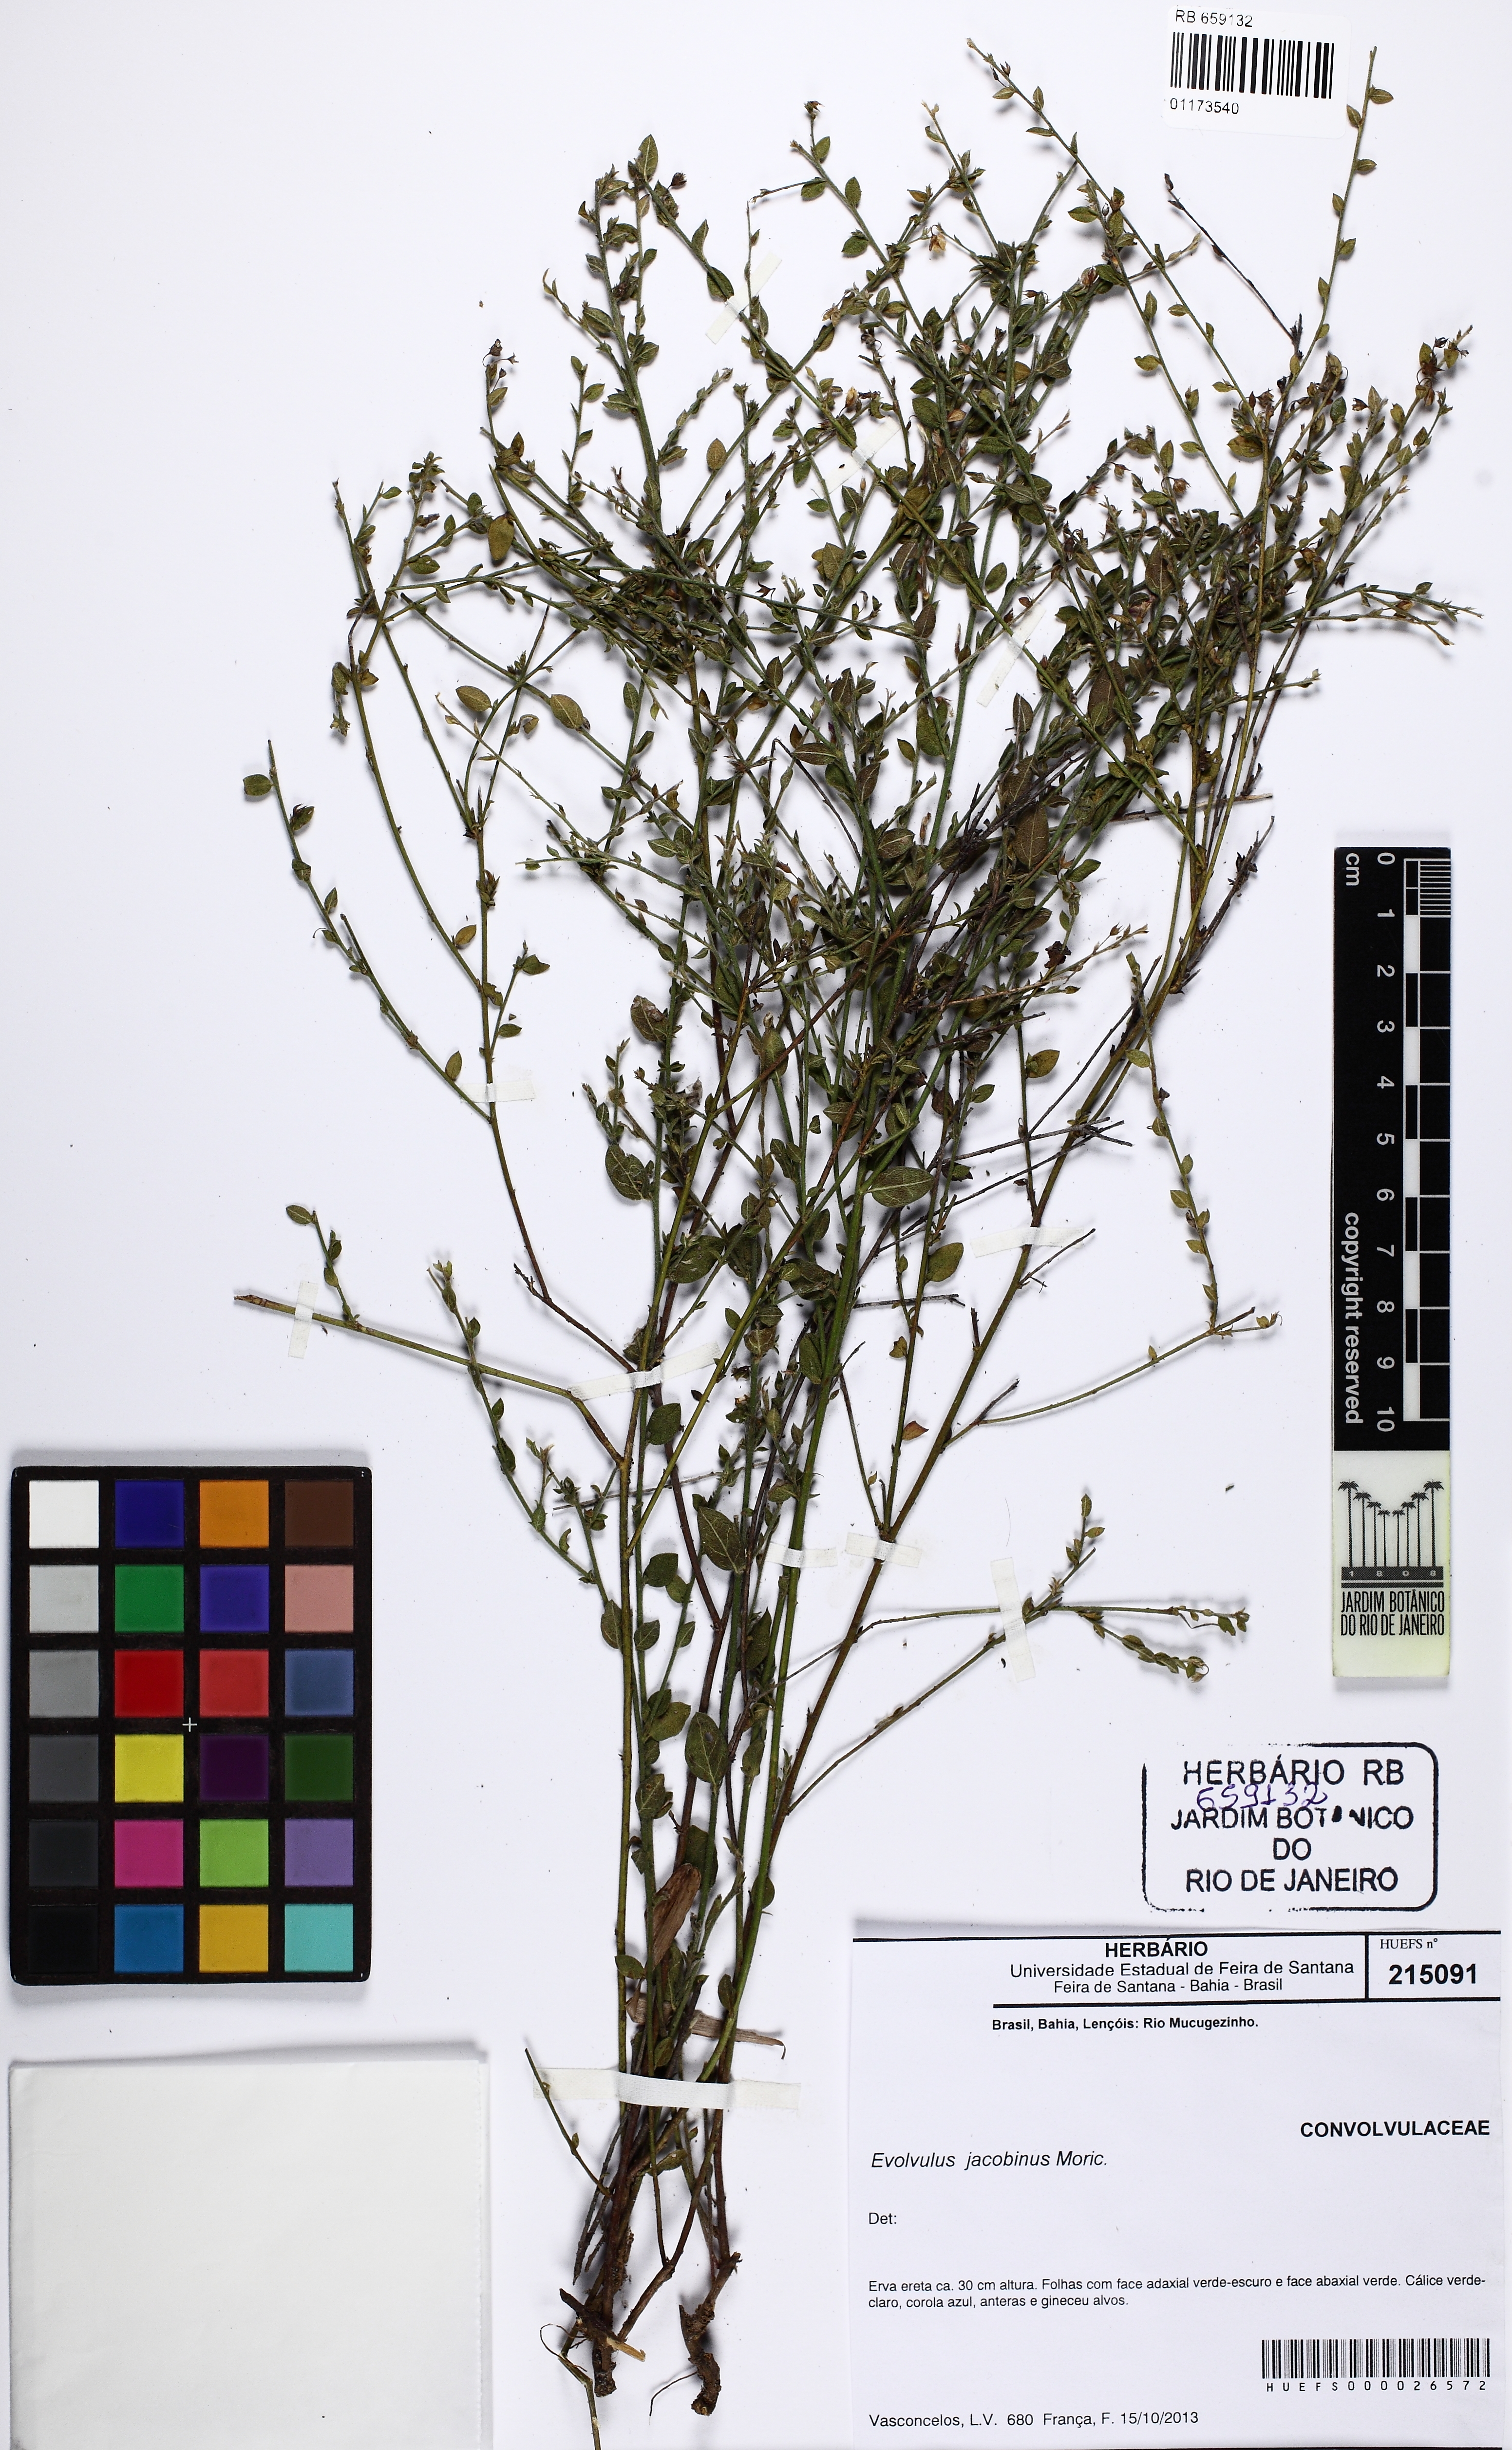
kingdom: Plantae
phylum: Tracheophyta
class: Magnoliopsida
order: Solanales
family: Convolvulaceae
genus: Evolvulus
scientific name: Evolvulus jacobinus
